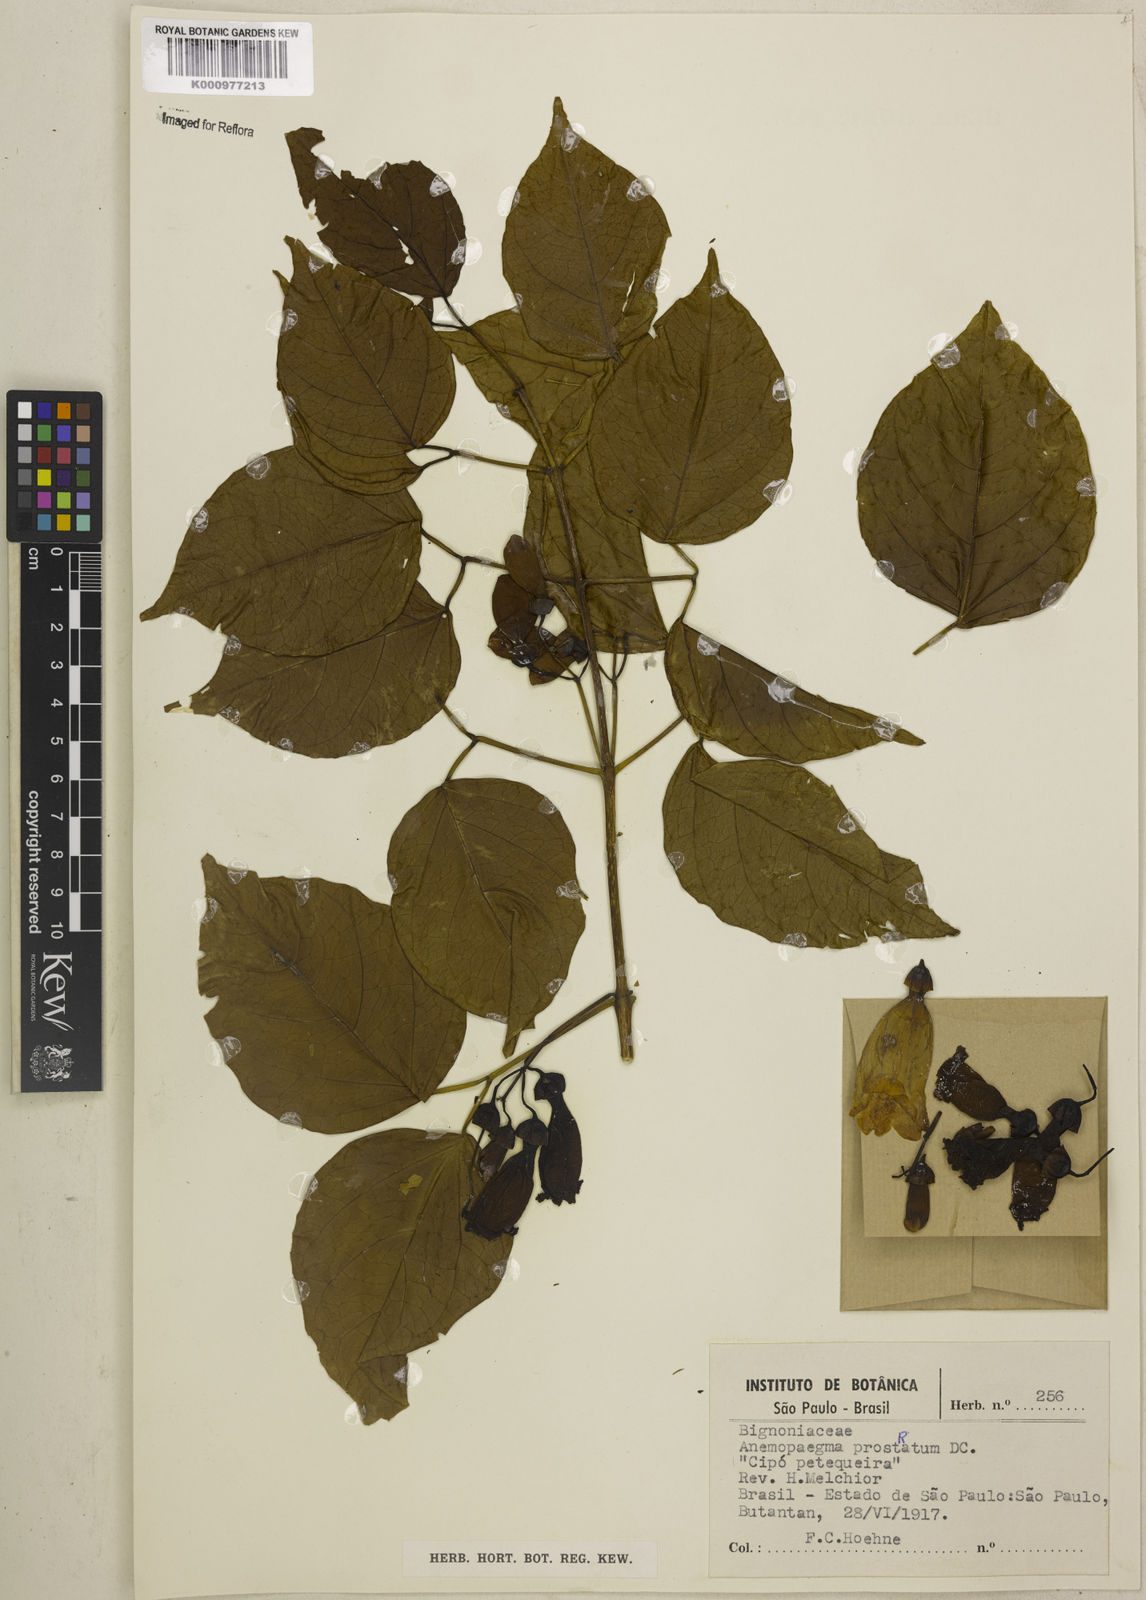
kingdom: Plantae
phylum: Tracheophyta
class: Magnoliopsida
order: Lamiales
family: Bignoniaceae
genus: Anemopaegma
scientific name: Anemopaegma prostratum
